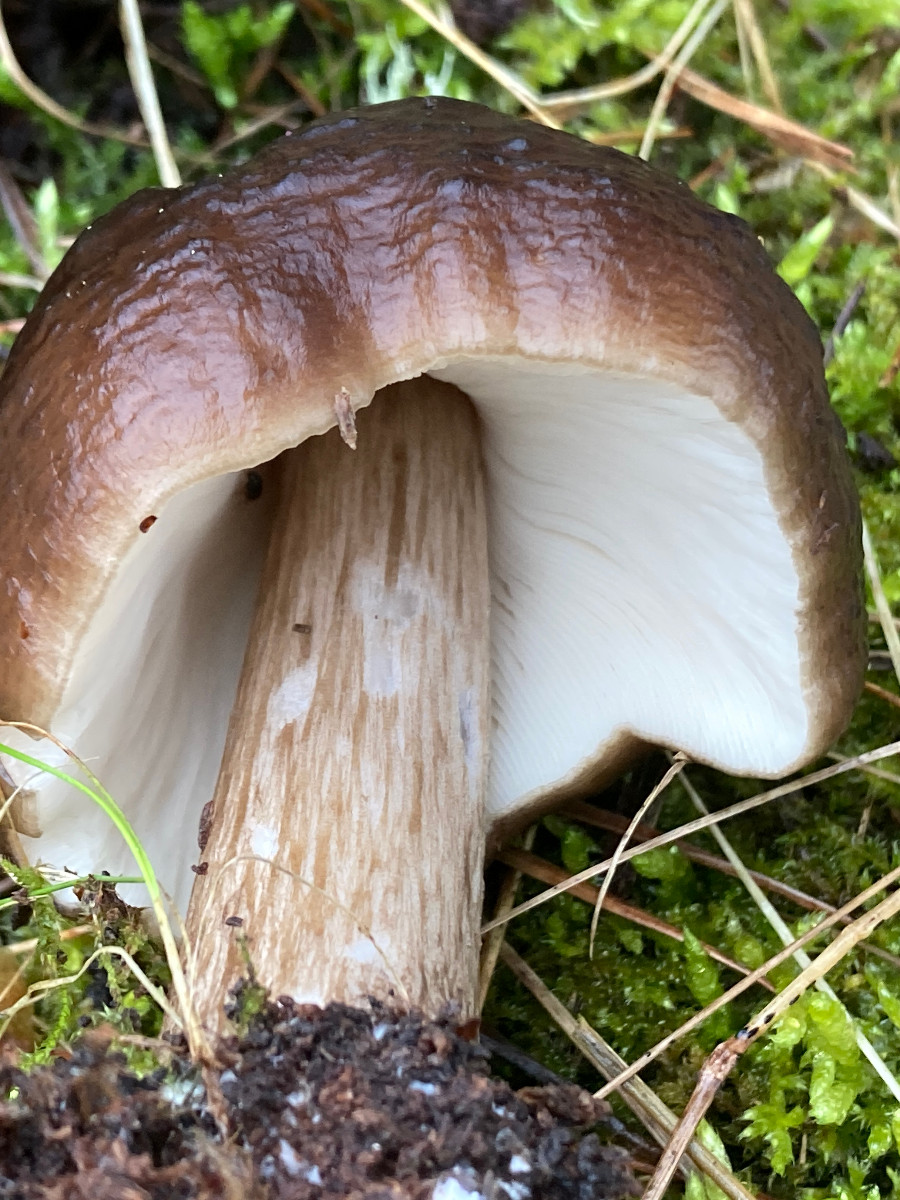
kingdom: Fungi
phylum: Basidiomycota
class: Agaricomycetes
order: Agaricales
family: Pluteaceae
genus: Pluteus
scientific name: Pluteus cervinus
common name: sodfarvet skærmhat
